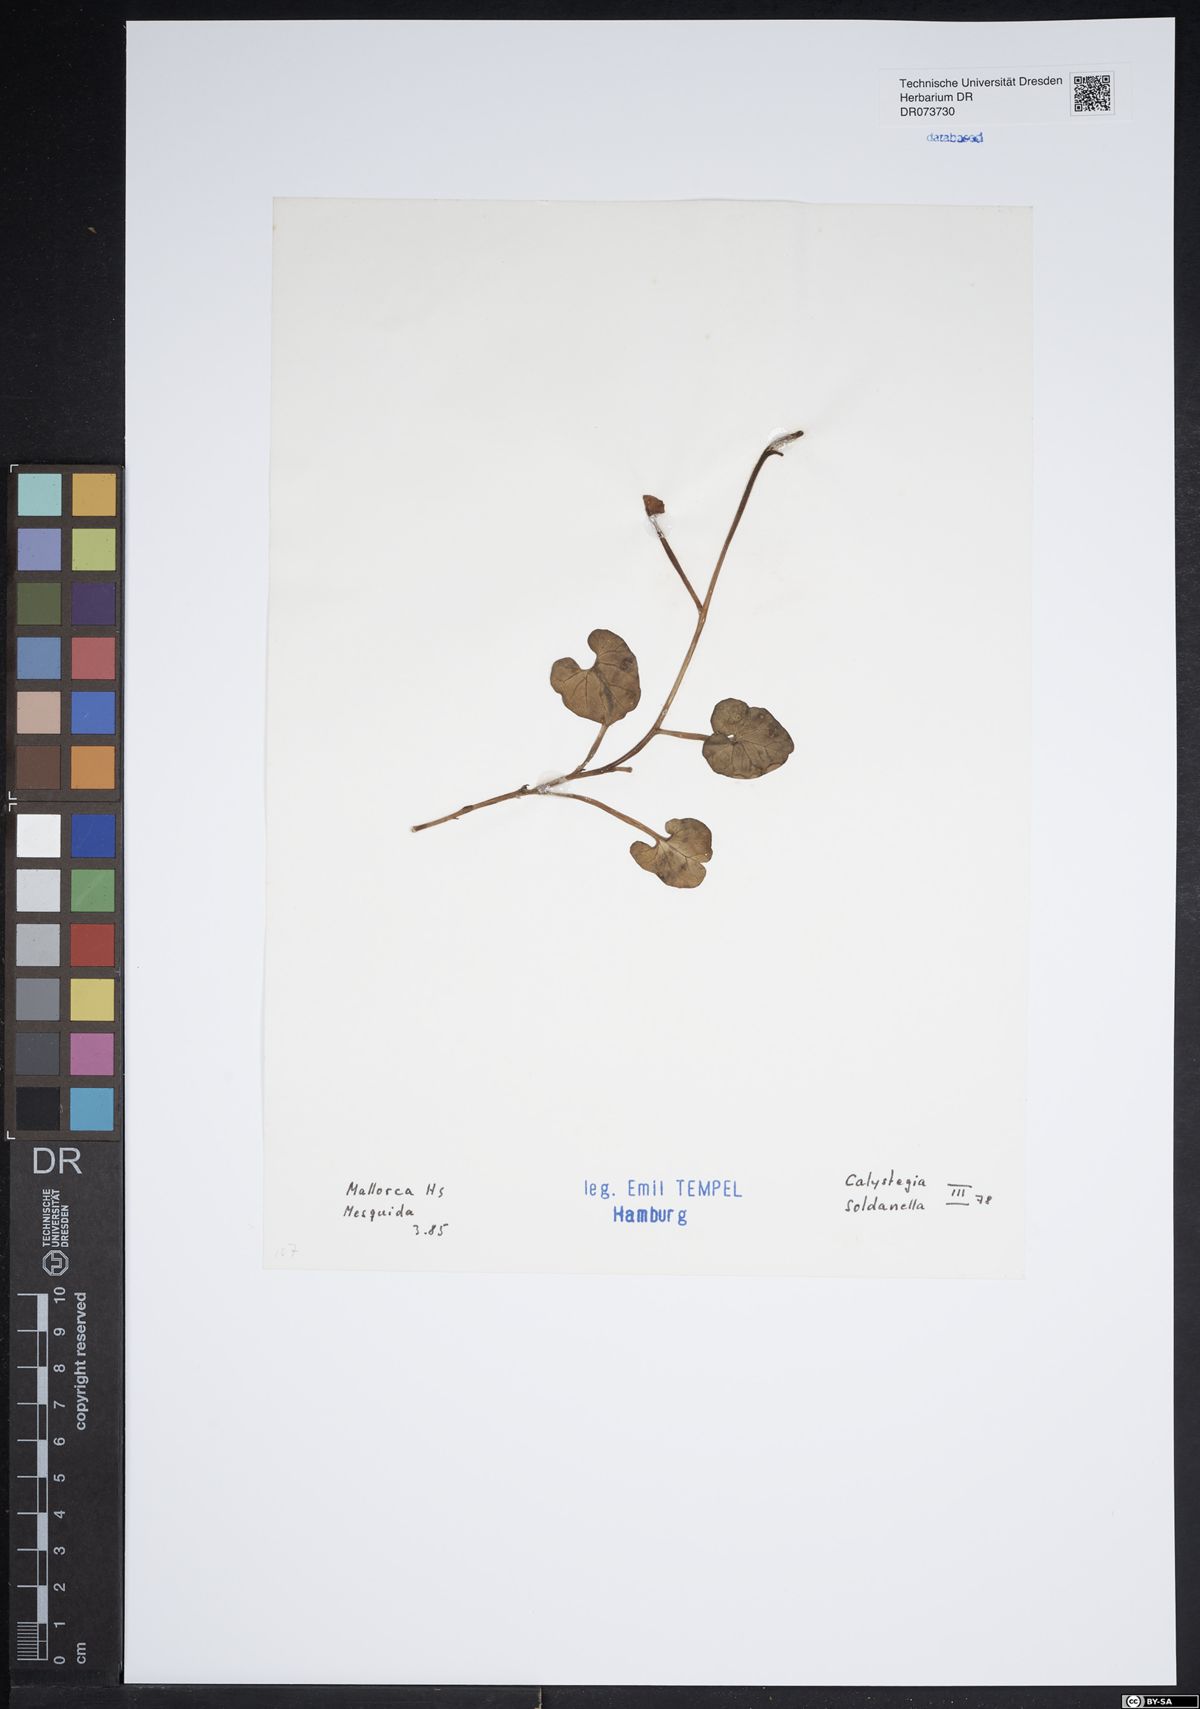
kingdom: Plantae
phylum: Tracheophyta
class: Magnoliopsida
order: Solanales
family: Convolvulaceae
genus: Calystegia
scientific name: Calystegia soldanella
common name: Sea bindweed
